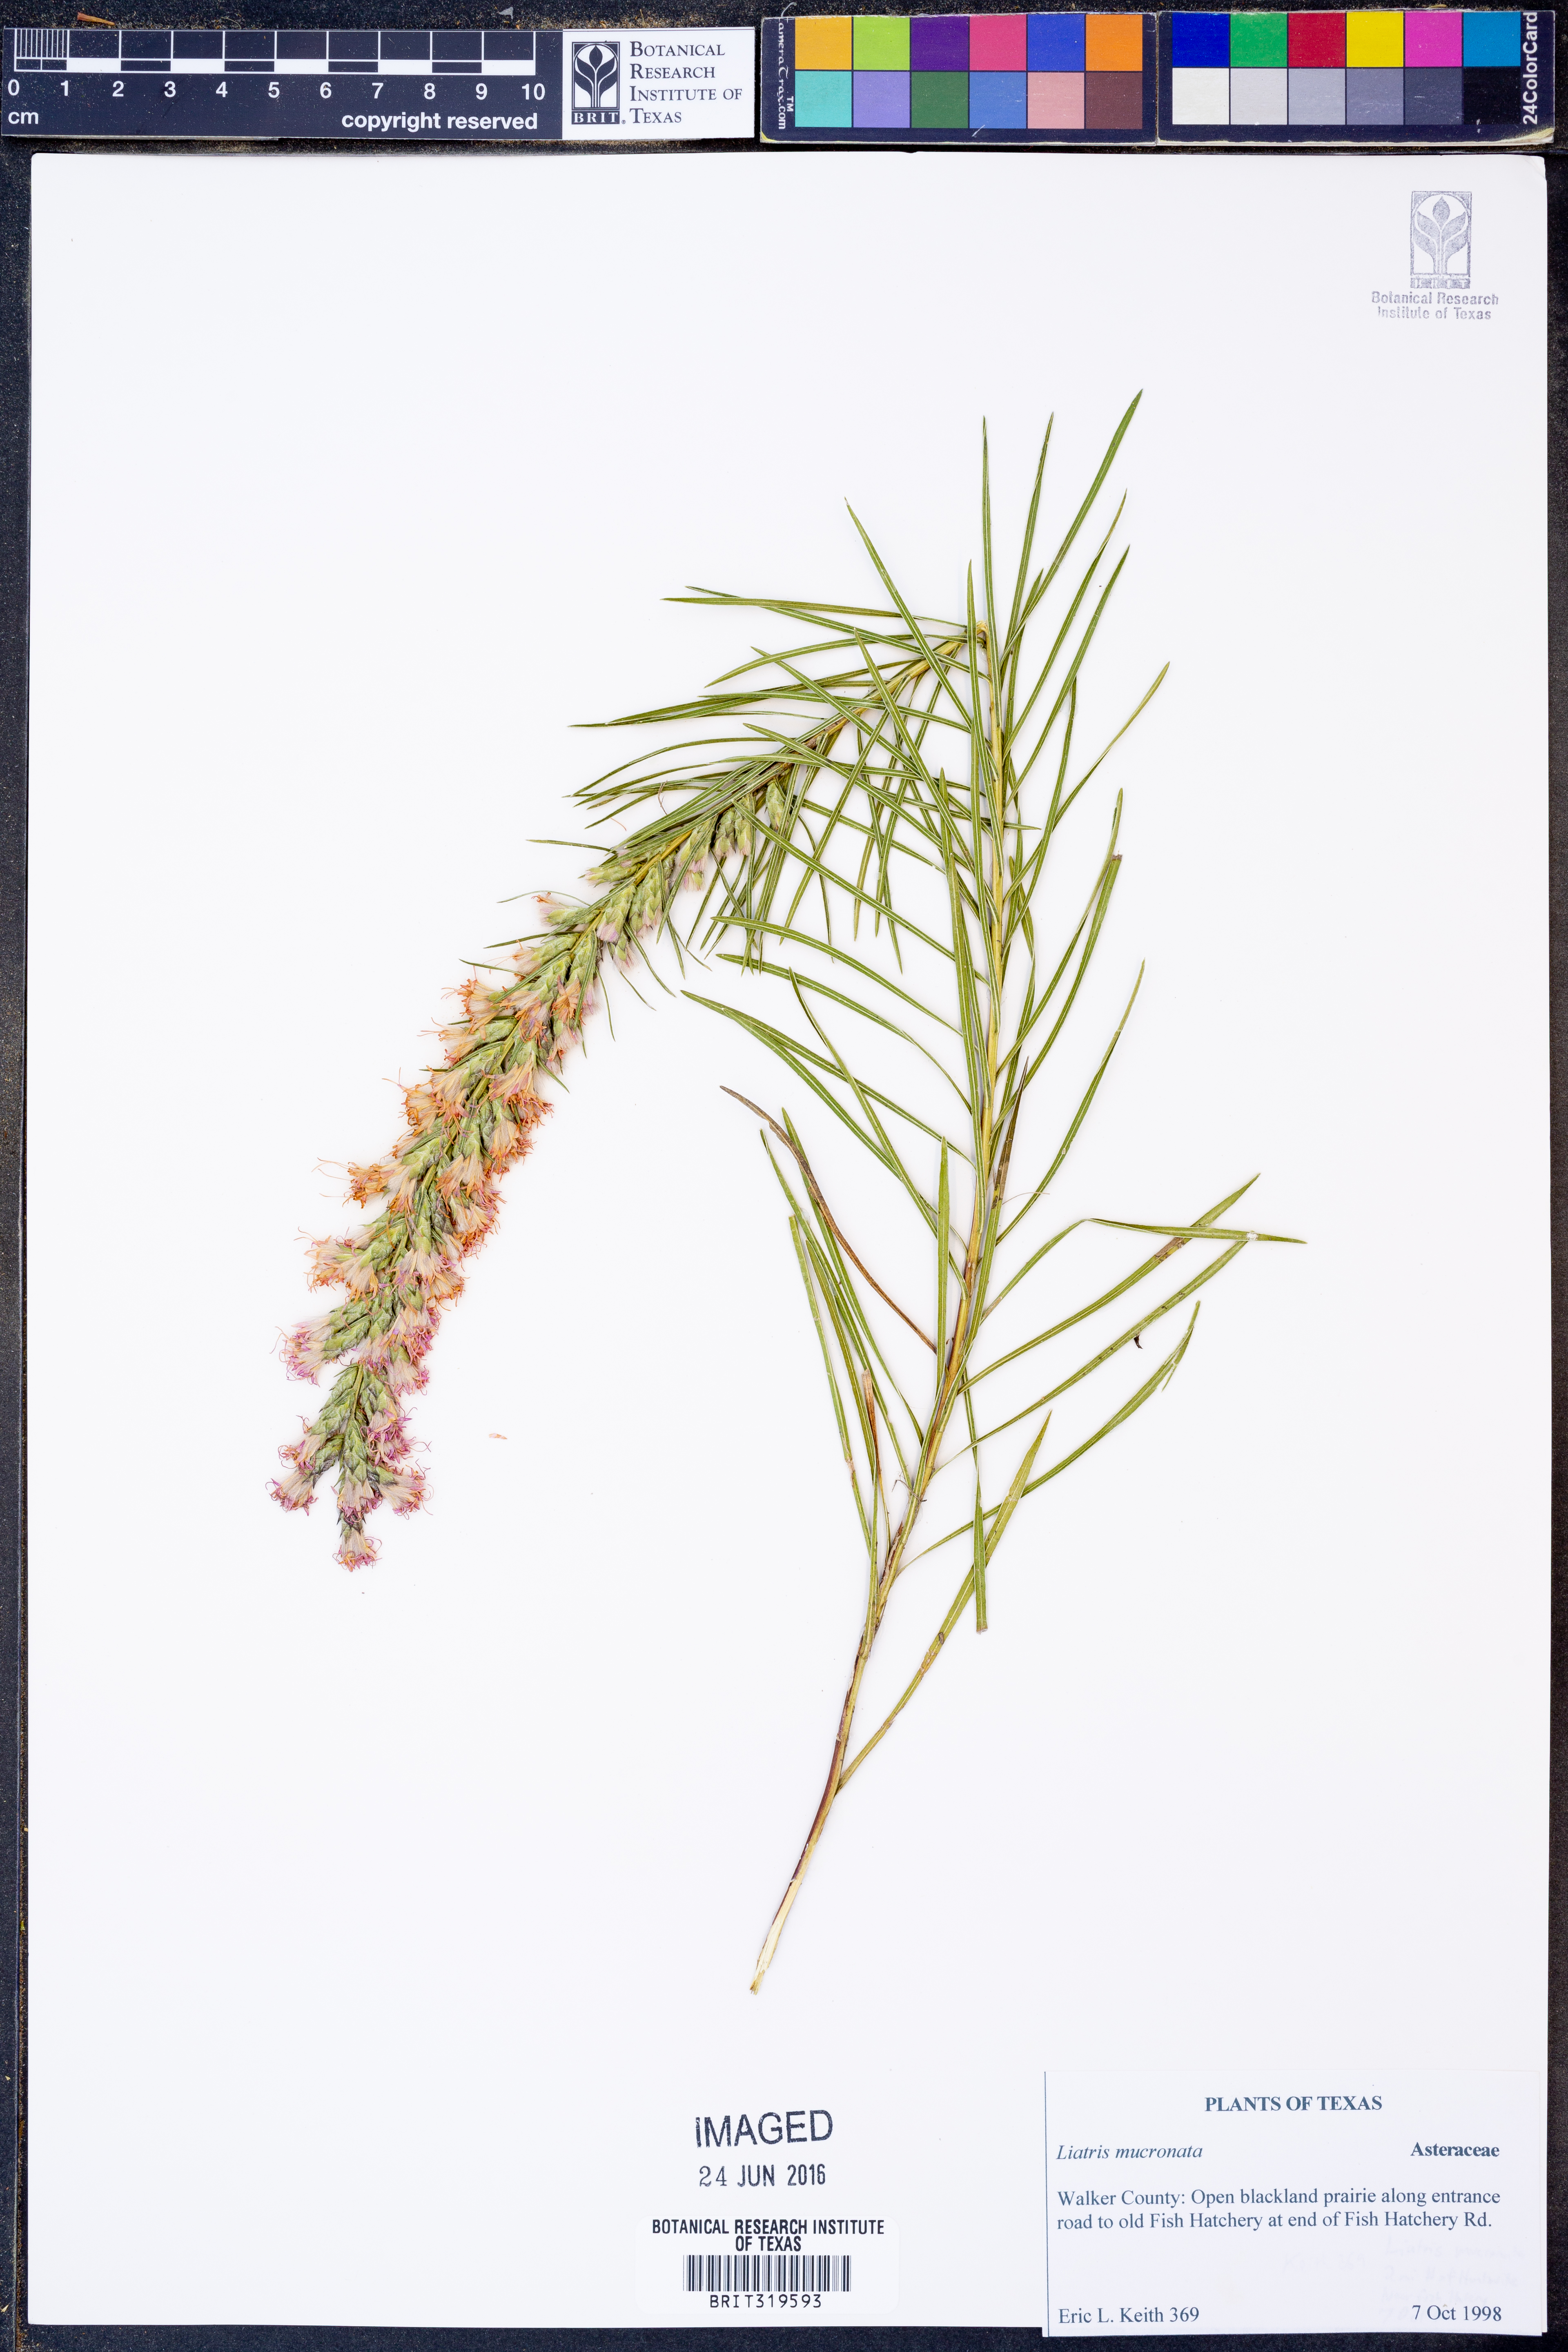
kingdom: Plantae
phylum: Tracheophyta
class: Magnoliopsida
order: Asterales
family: Asteraceae
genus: Liatris
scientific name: Liatris mucronata
